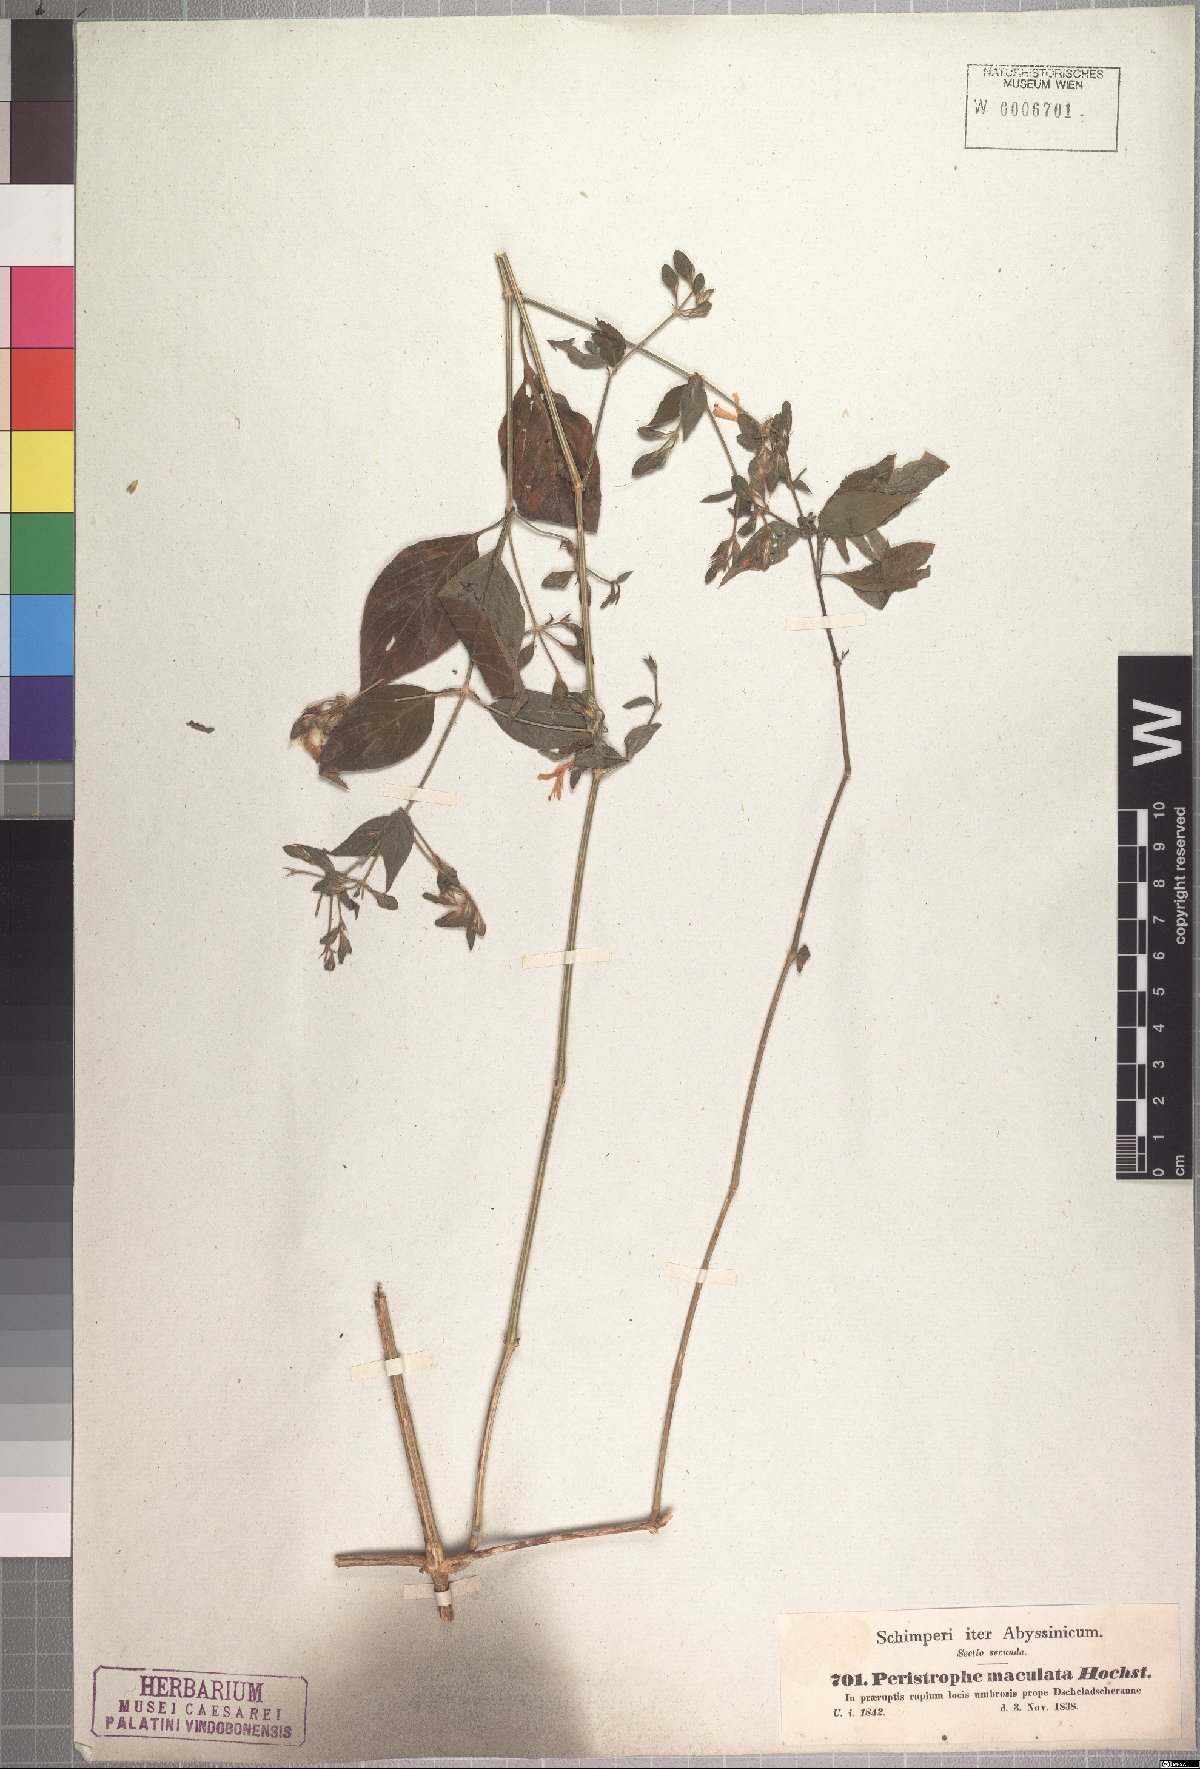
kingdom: Plantae
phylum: Tracheophyta
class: Magnoliopsida
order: Lamiales
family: Acanthaceae
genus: Dicliptera
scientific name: Dicliptera verticillata
